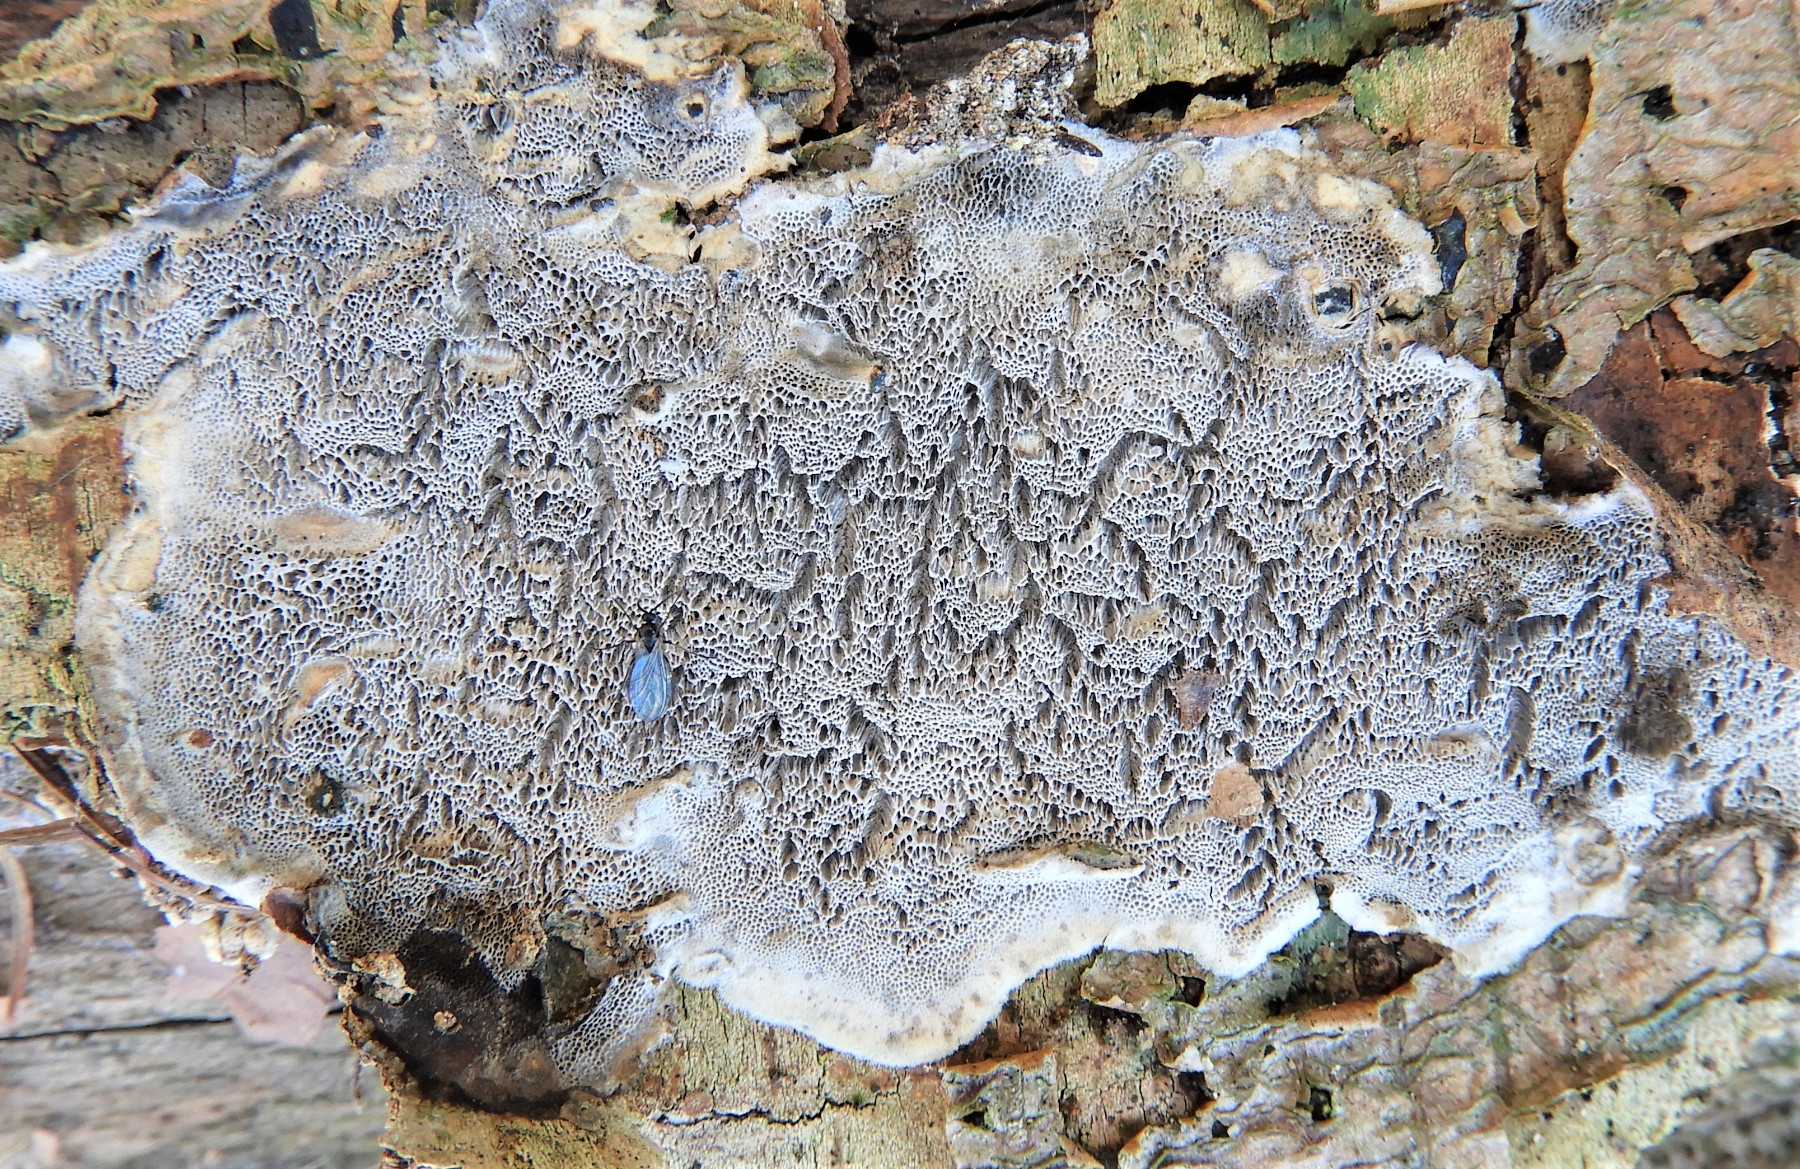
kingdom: Fungi
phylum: Basidiomycota
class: Agaricomycetes
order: Polyporales
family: Phanerochaetaceae
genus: Bjerkandera
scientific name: Bjerkandera adusta
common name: sveden sodporesvamp
